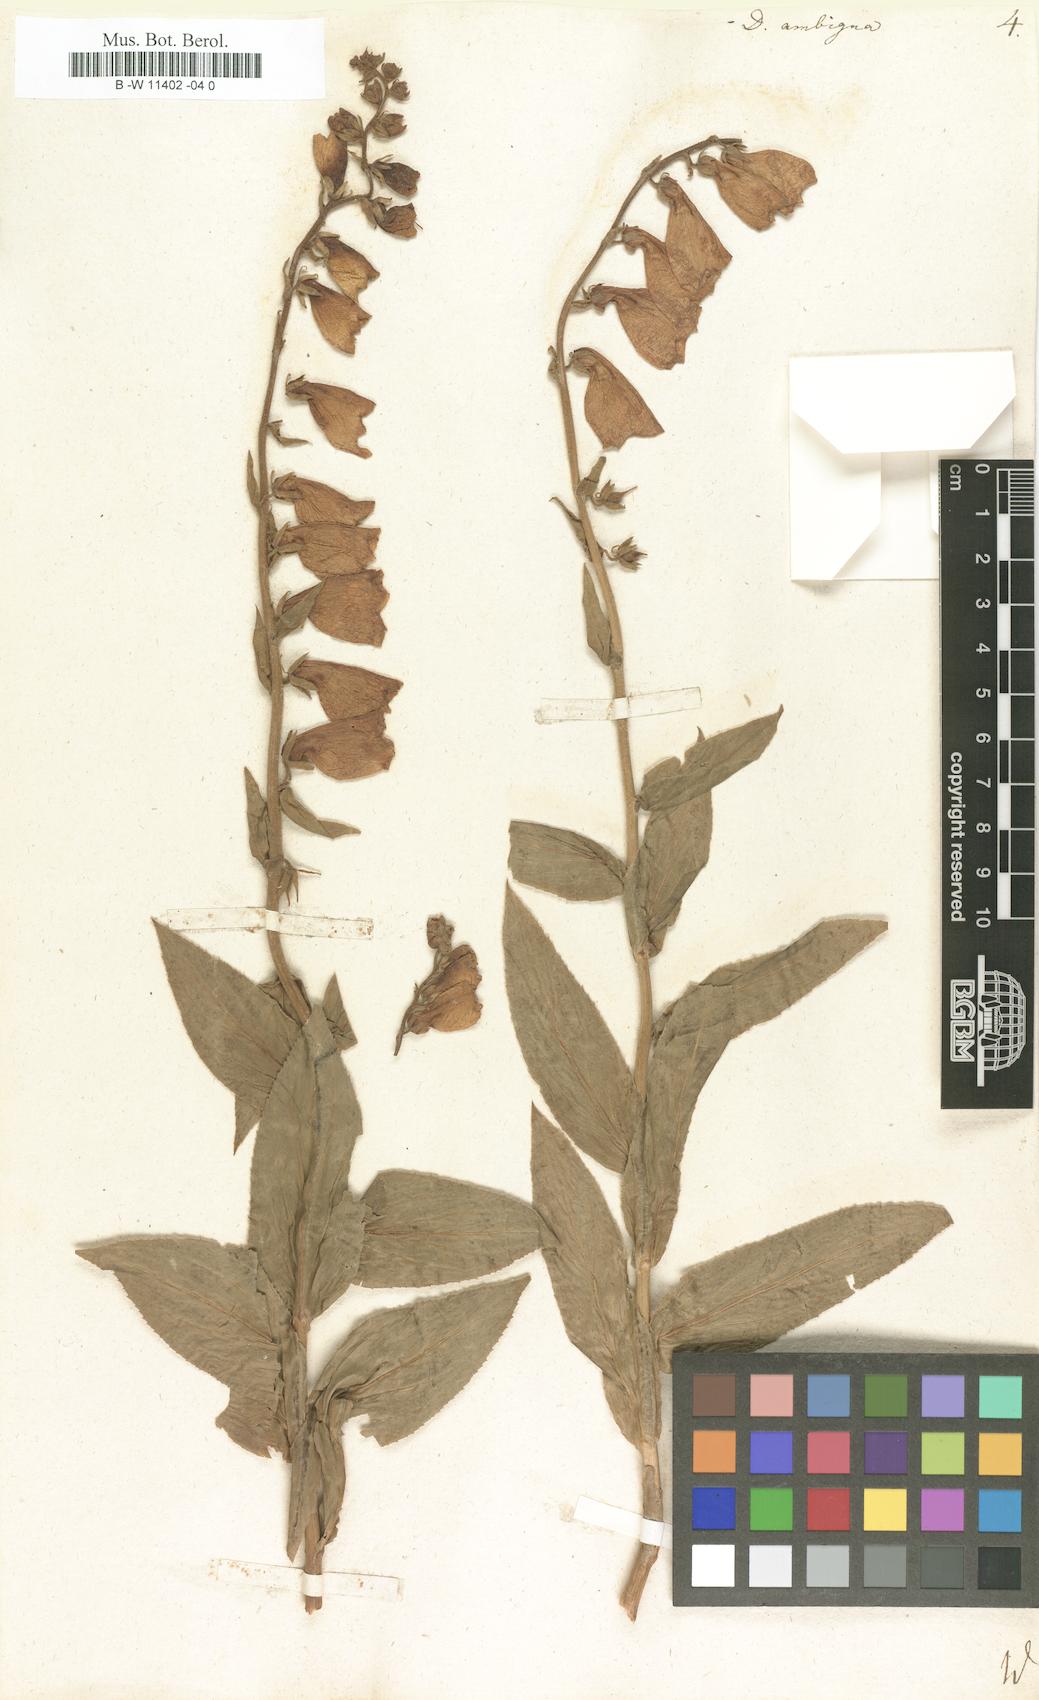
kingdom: Plantae
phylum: Tracheophyta
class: Magnoliopsida
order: Lamiales
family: Plantaginaceae
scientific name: Plantaginaceae
